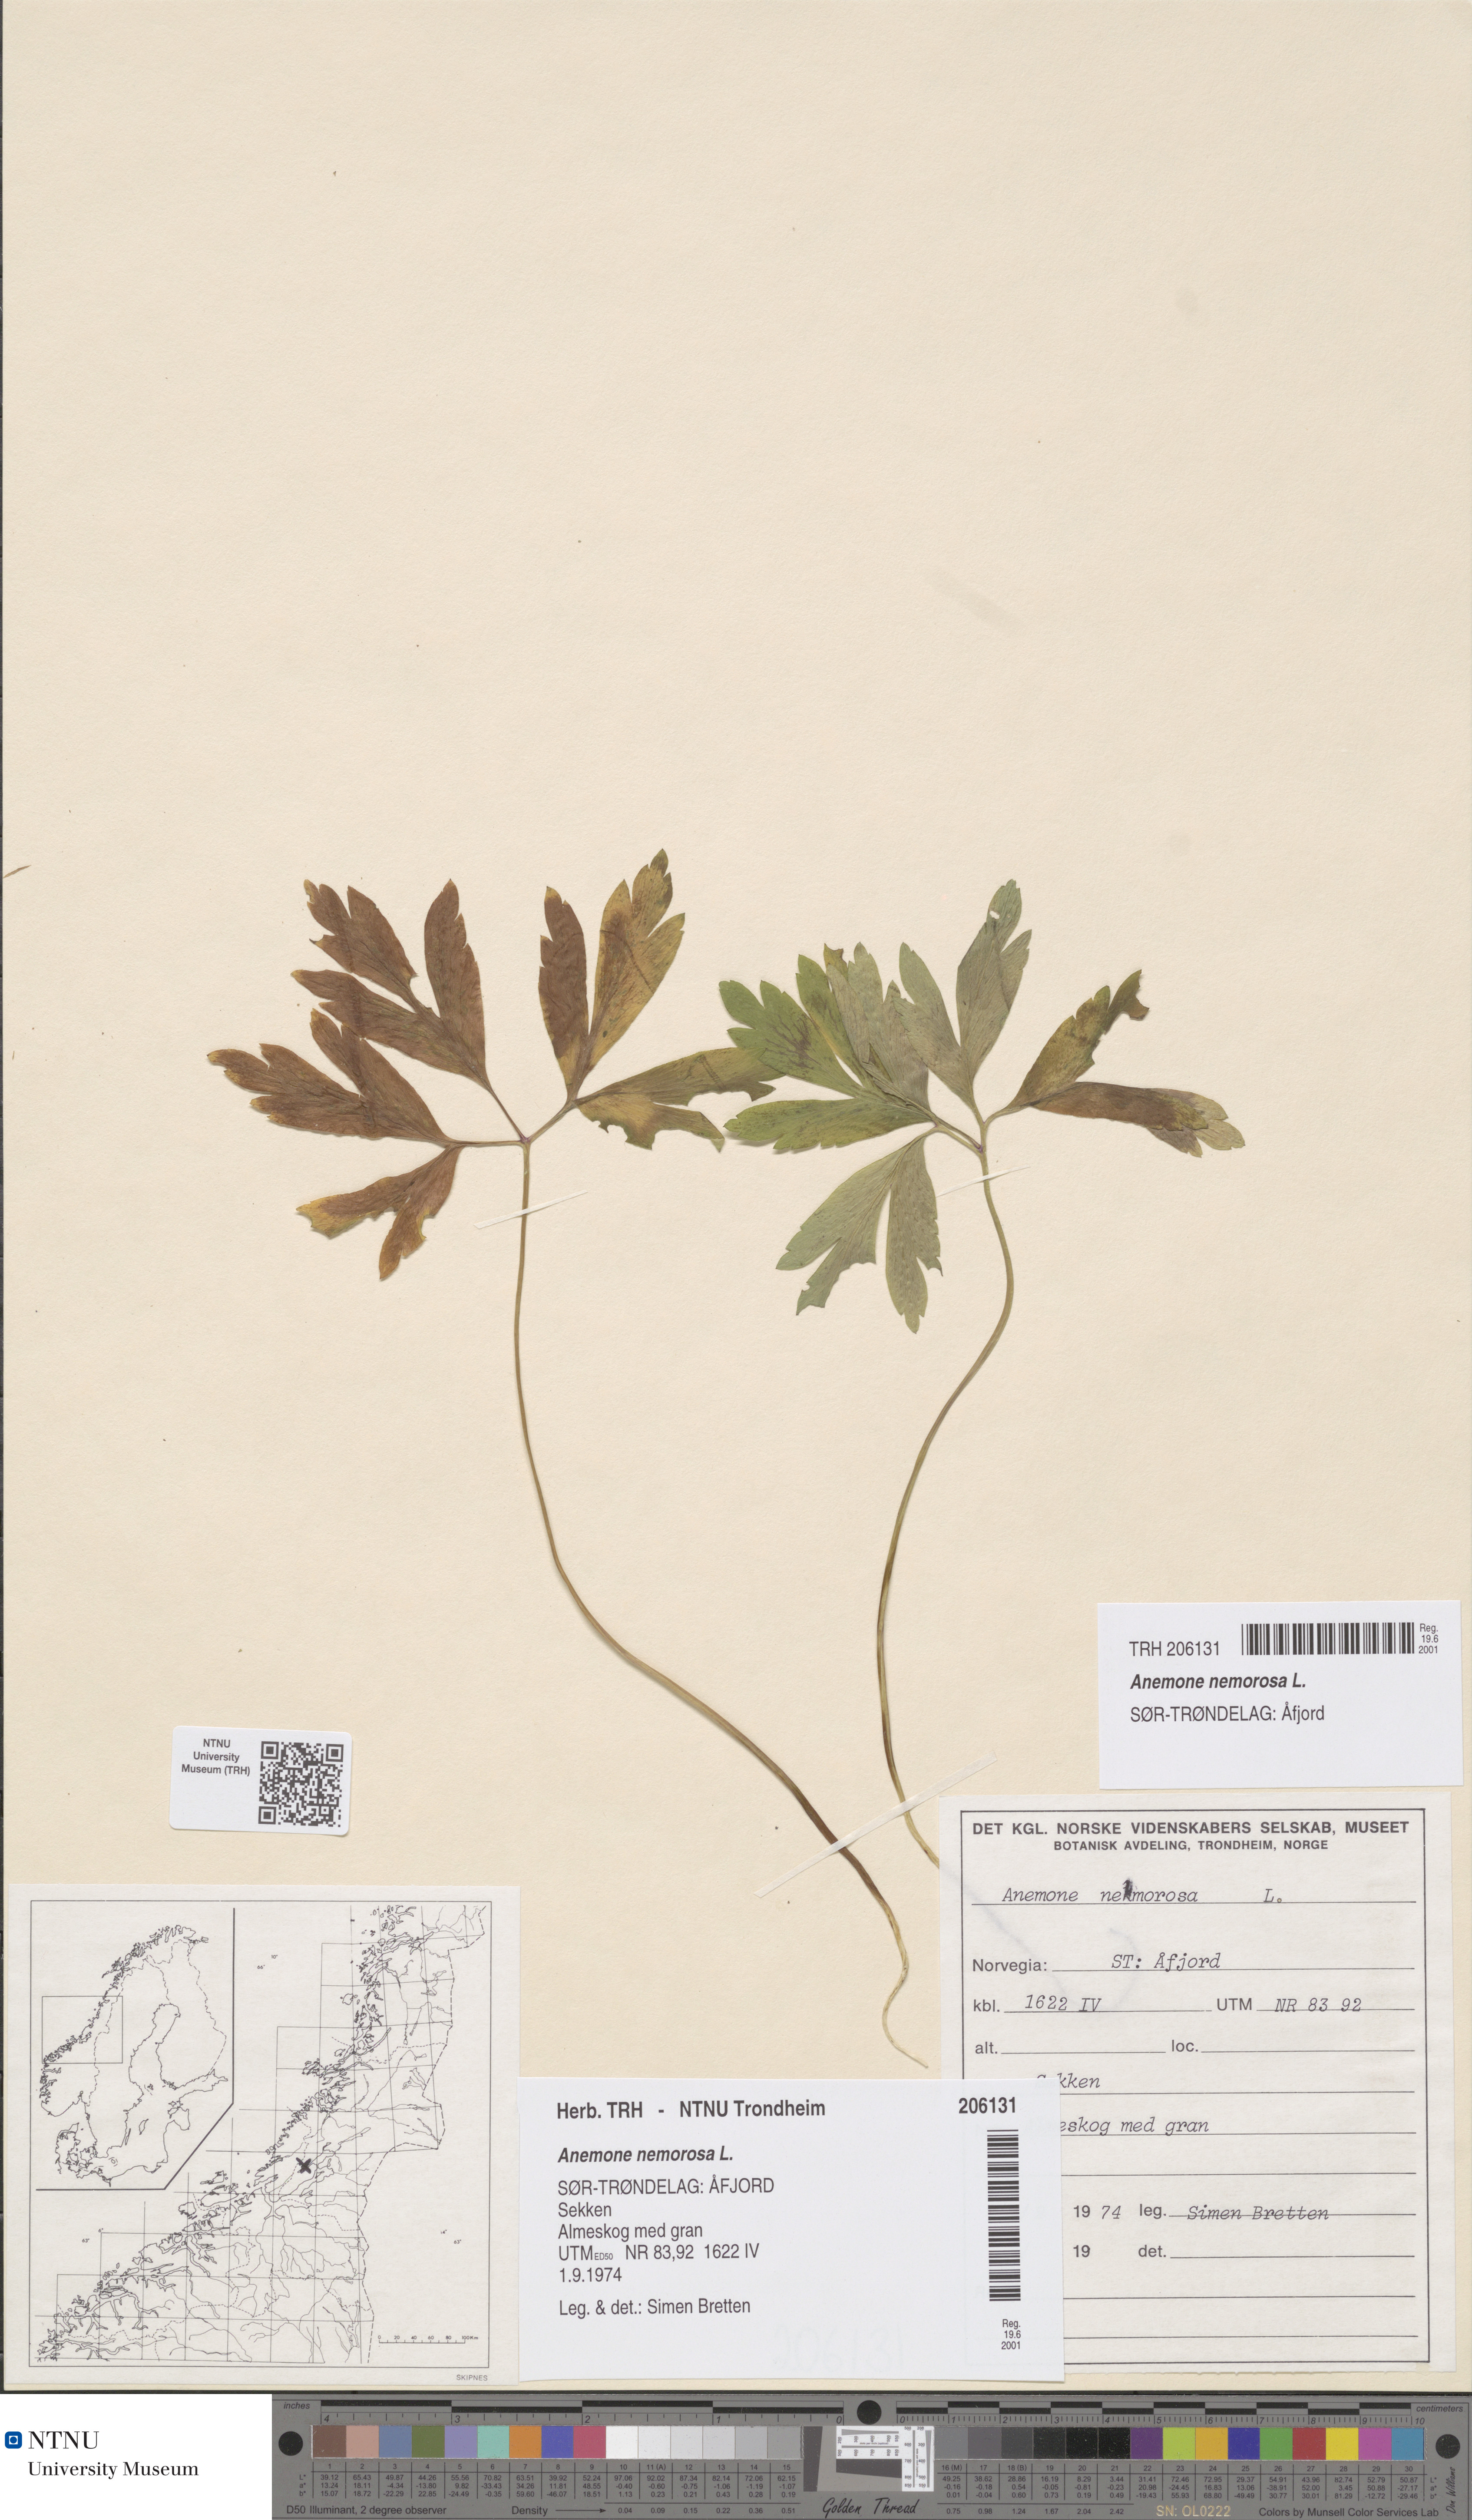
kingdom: Plantae
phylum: Tracheophyta
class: Magnoliopsida
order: Ranunculales
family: Ranunculaceae
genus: Anemone
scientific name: Anemone nemorosa
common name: Wood anemone
